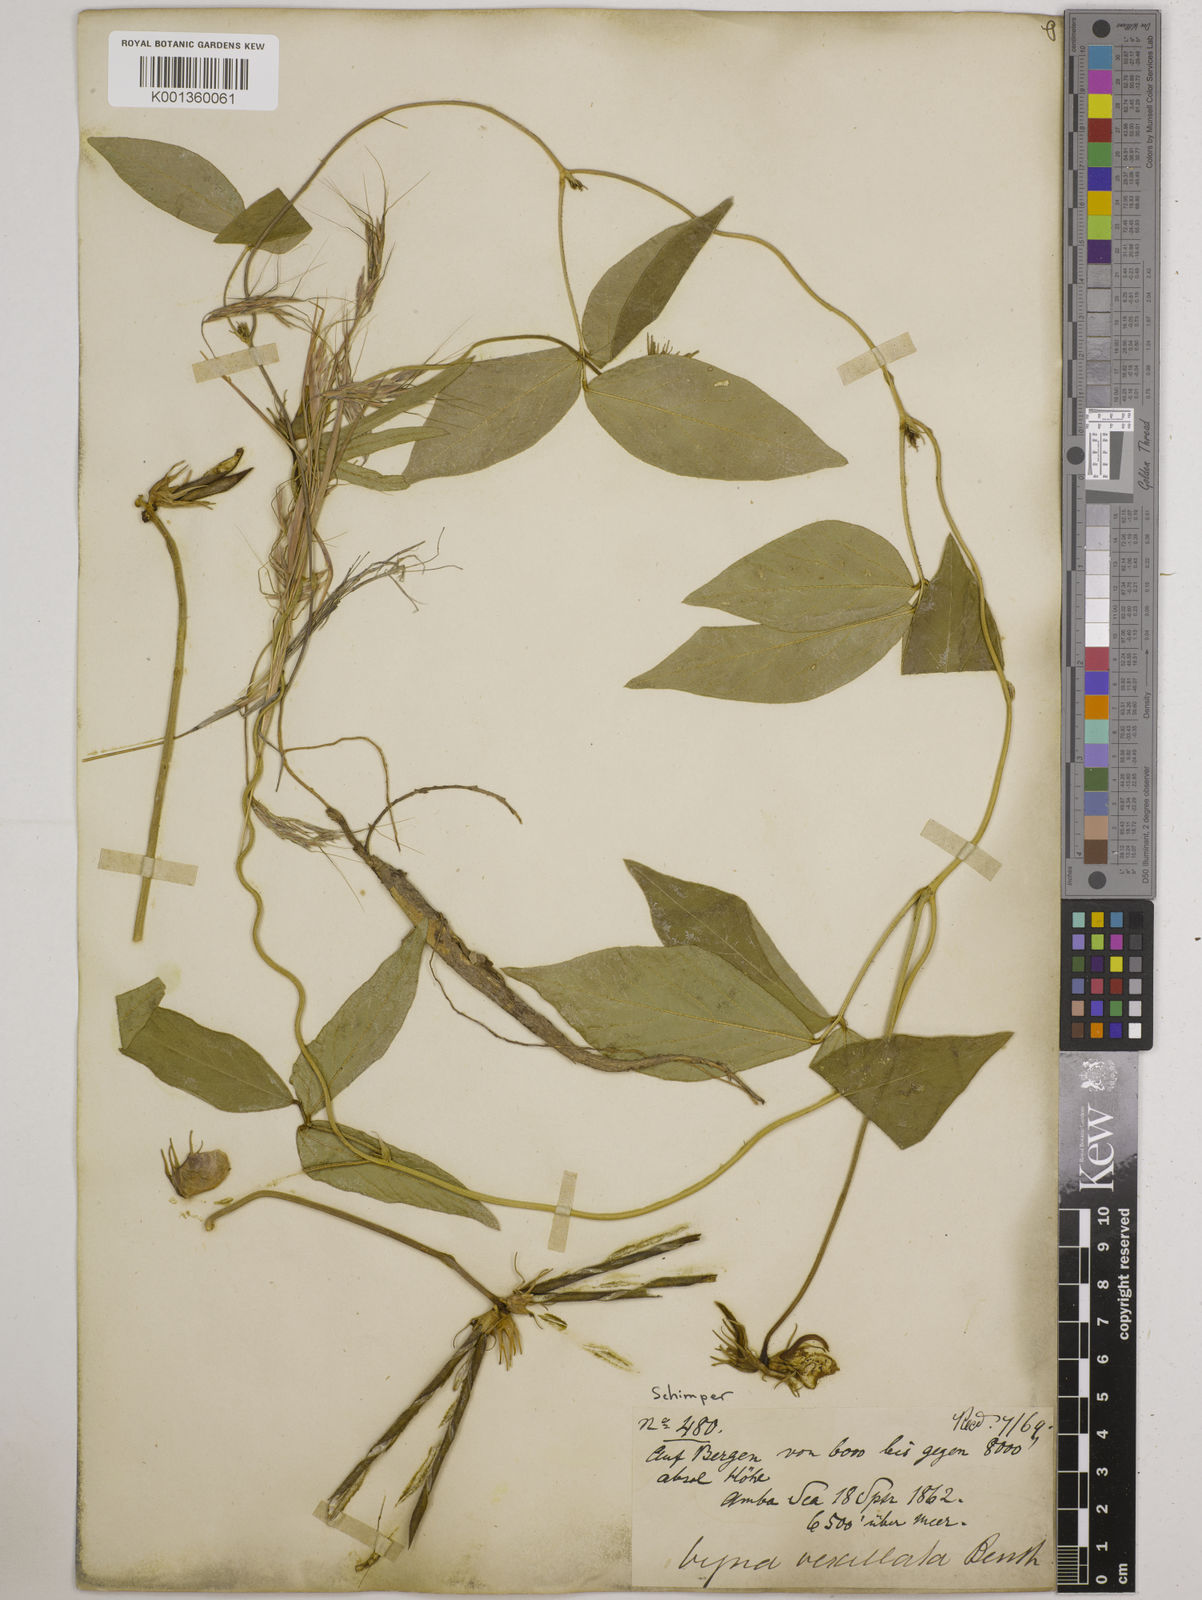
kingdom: Plantae
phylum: Tracheophyta
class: Magnoliopsida
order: Fabales
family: Fabaceae
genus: Vigna
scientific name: Vigna vexillata
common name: Zombi pea
